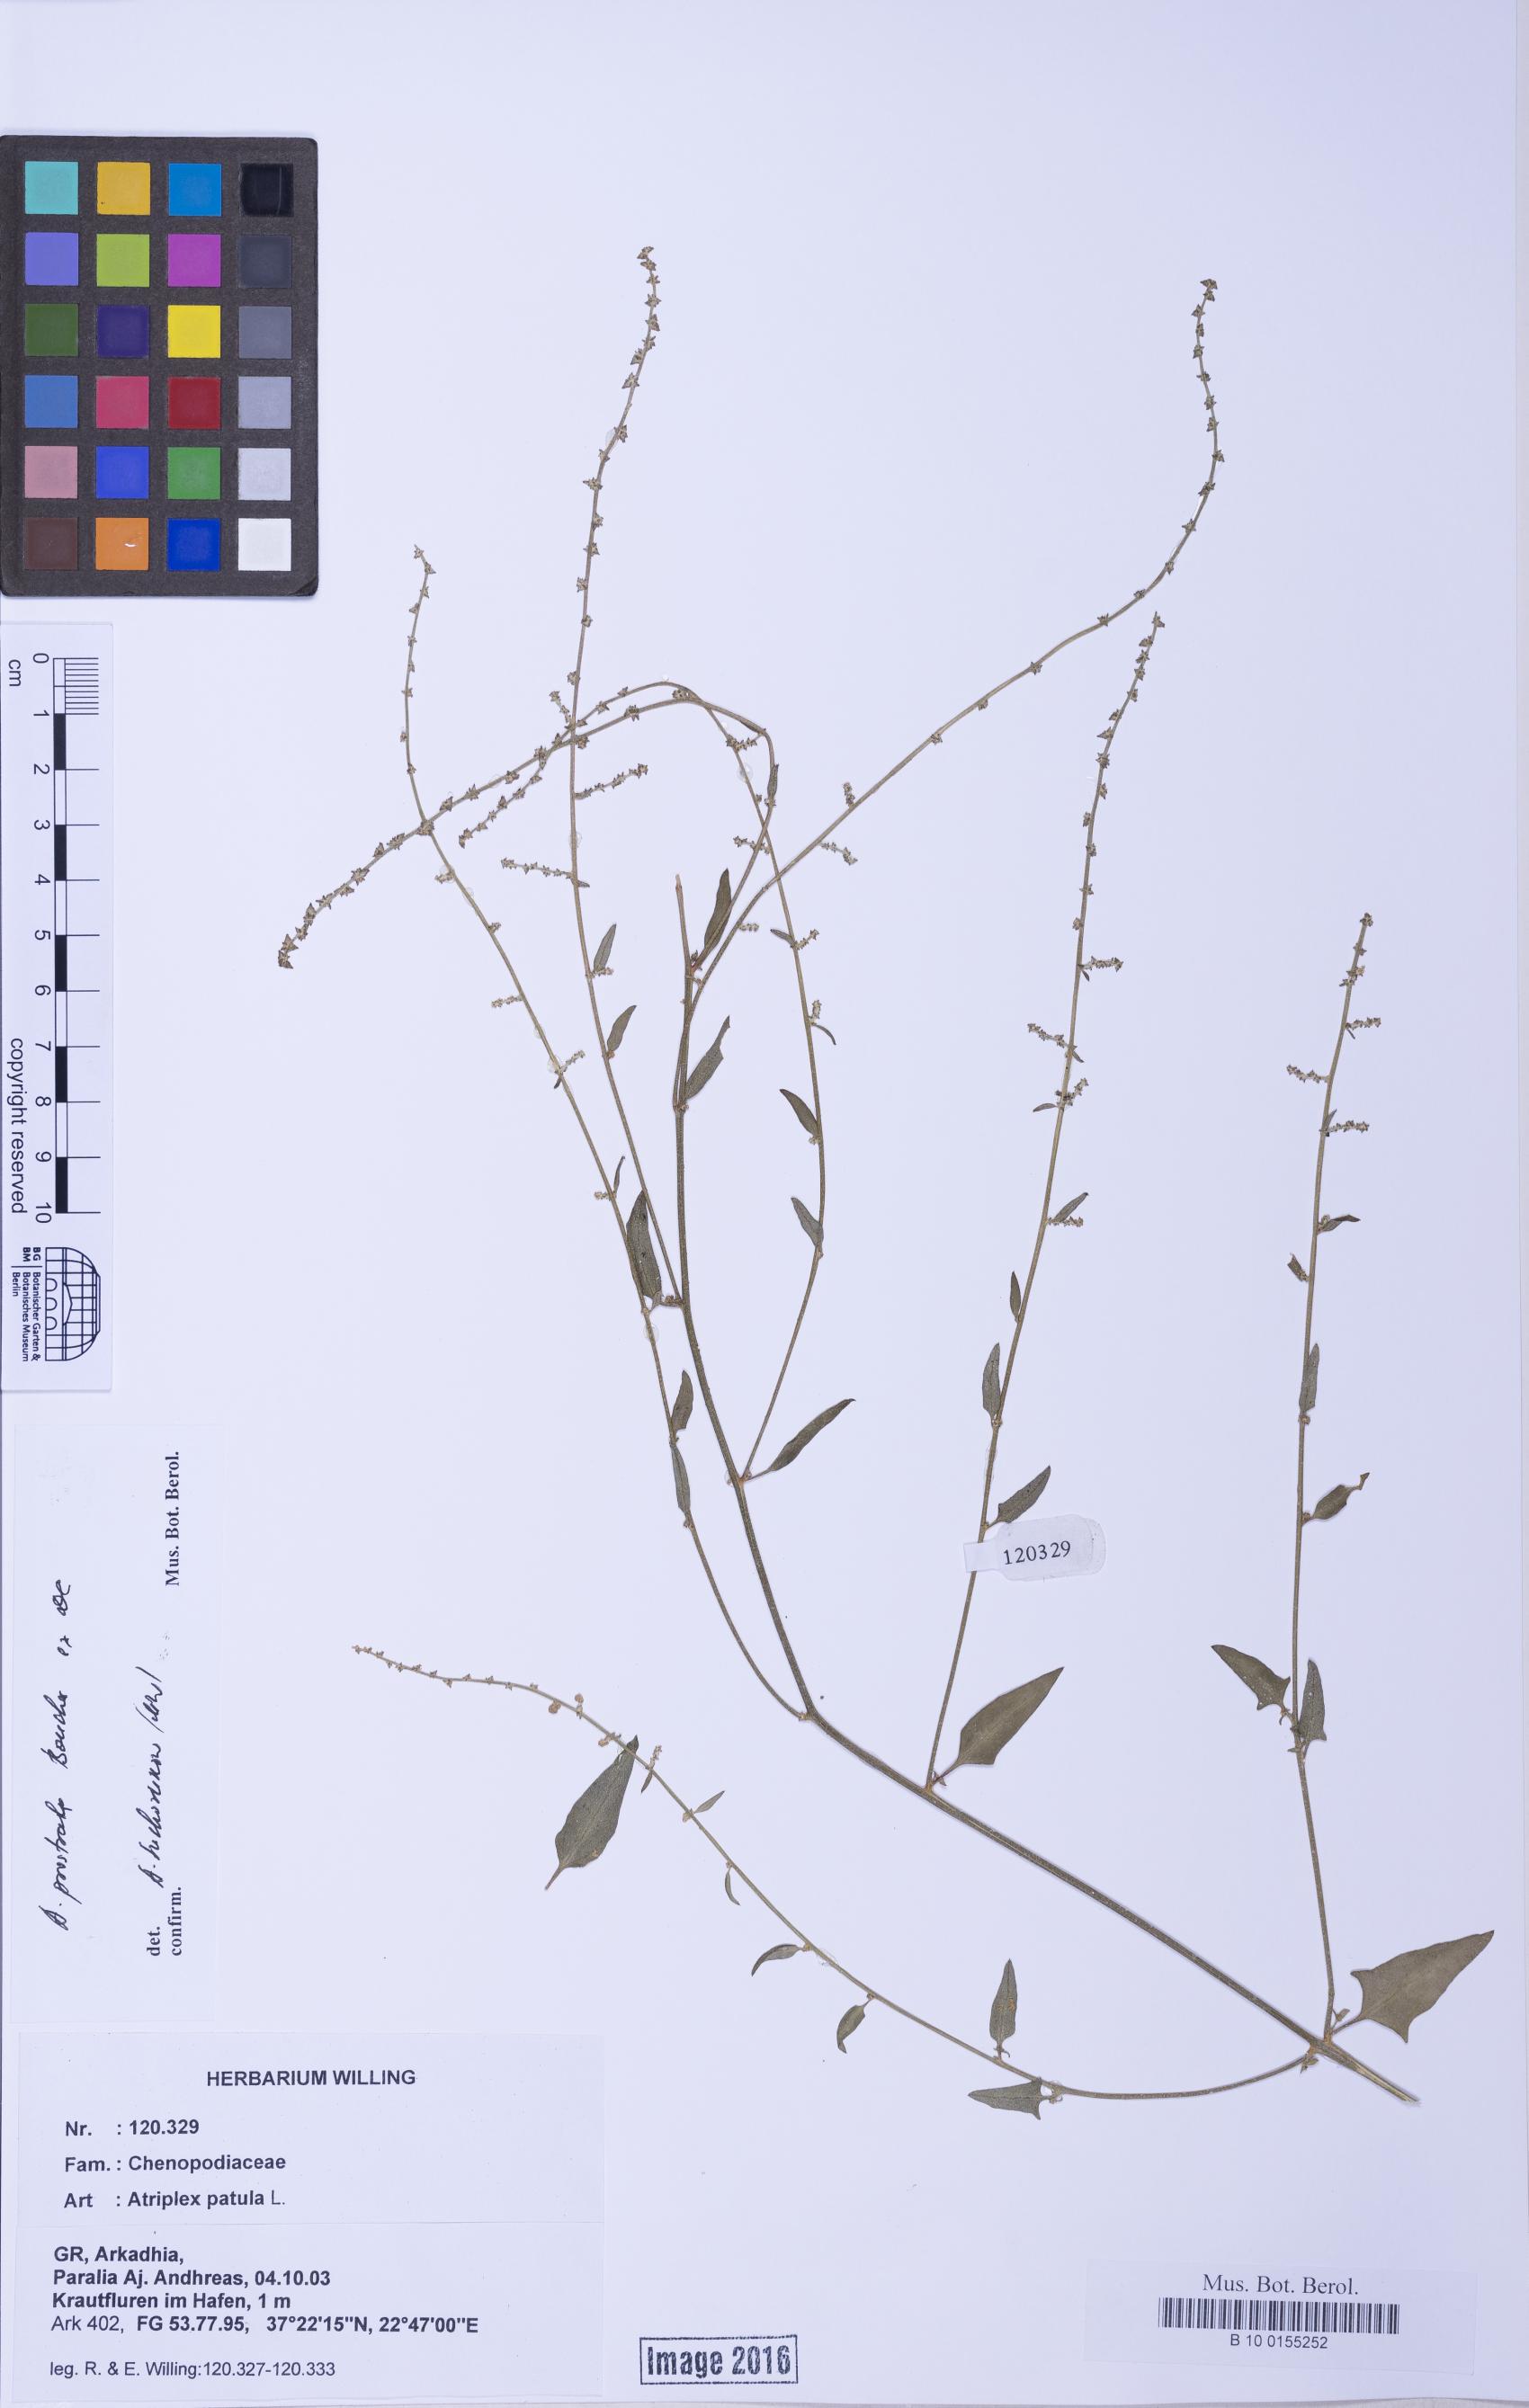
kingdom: Plantae
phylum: Tracheophyta
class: Magnoliopsida
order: Caryophyllales
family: Amaranthaceae
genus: Atriplex
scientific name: Atriplex prostrata
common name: Spear-leaved orache
